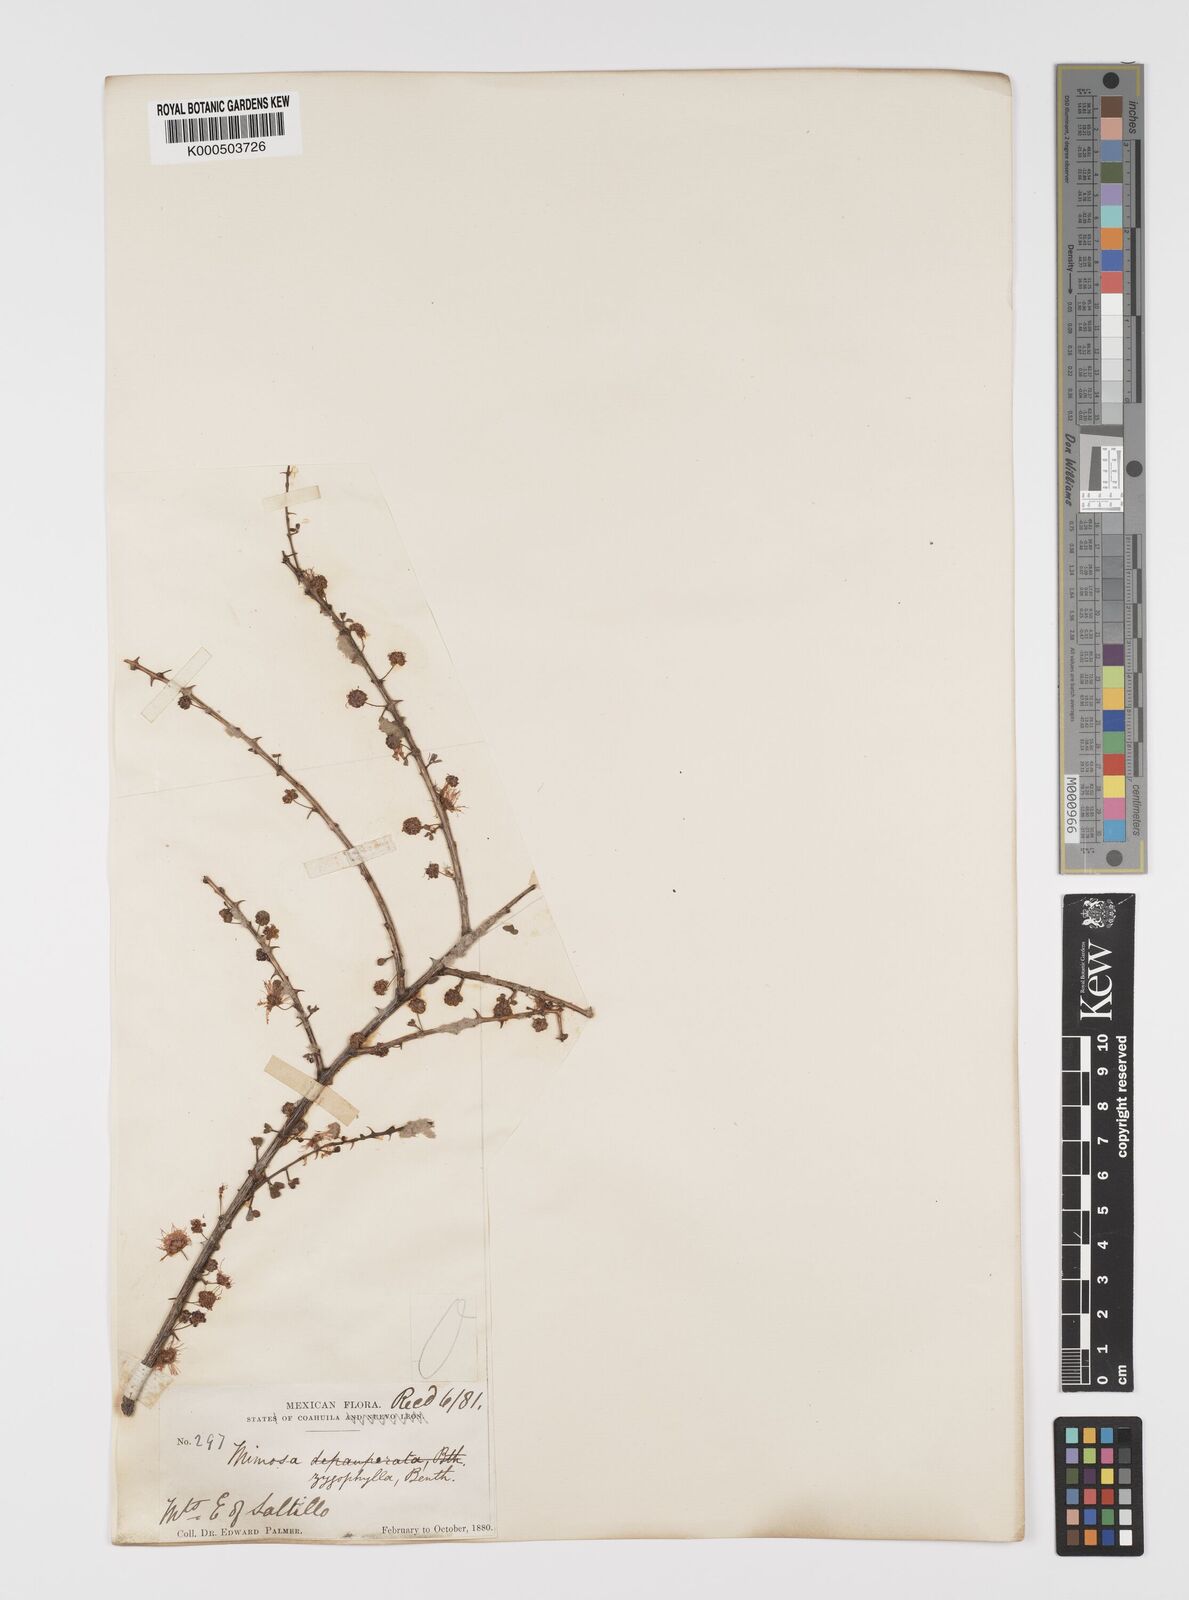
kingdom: Plantae
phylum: Tracheophyta
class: Magnoliopsida
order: Fabales
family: Fabaceae
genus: Mimosa
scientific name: Mimosa zygophylla
